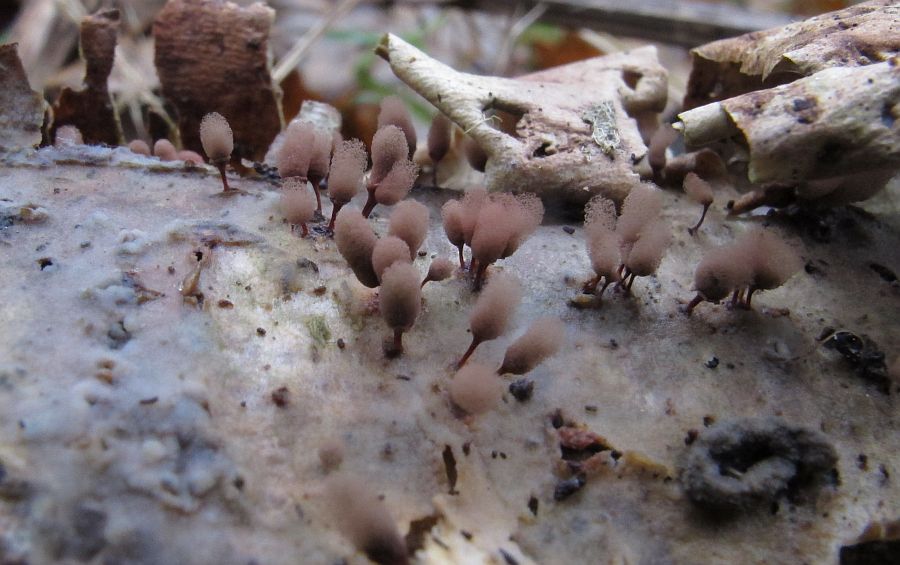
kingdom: Protozoa
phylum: Mycetozoa
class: Myxomycetes
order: Trichiales
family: Arcyriaceae
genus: Arcyria
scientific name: Arcyria denudata
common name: karminrød skålsvøb
